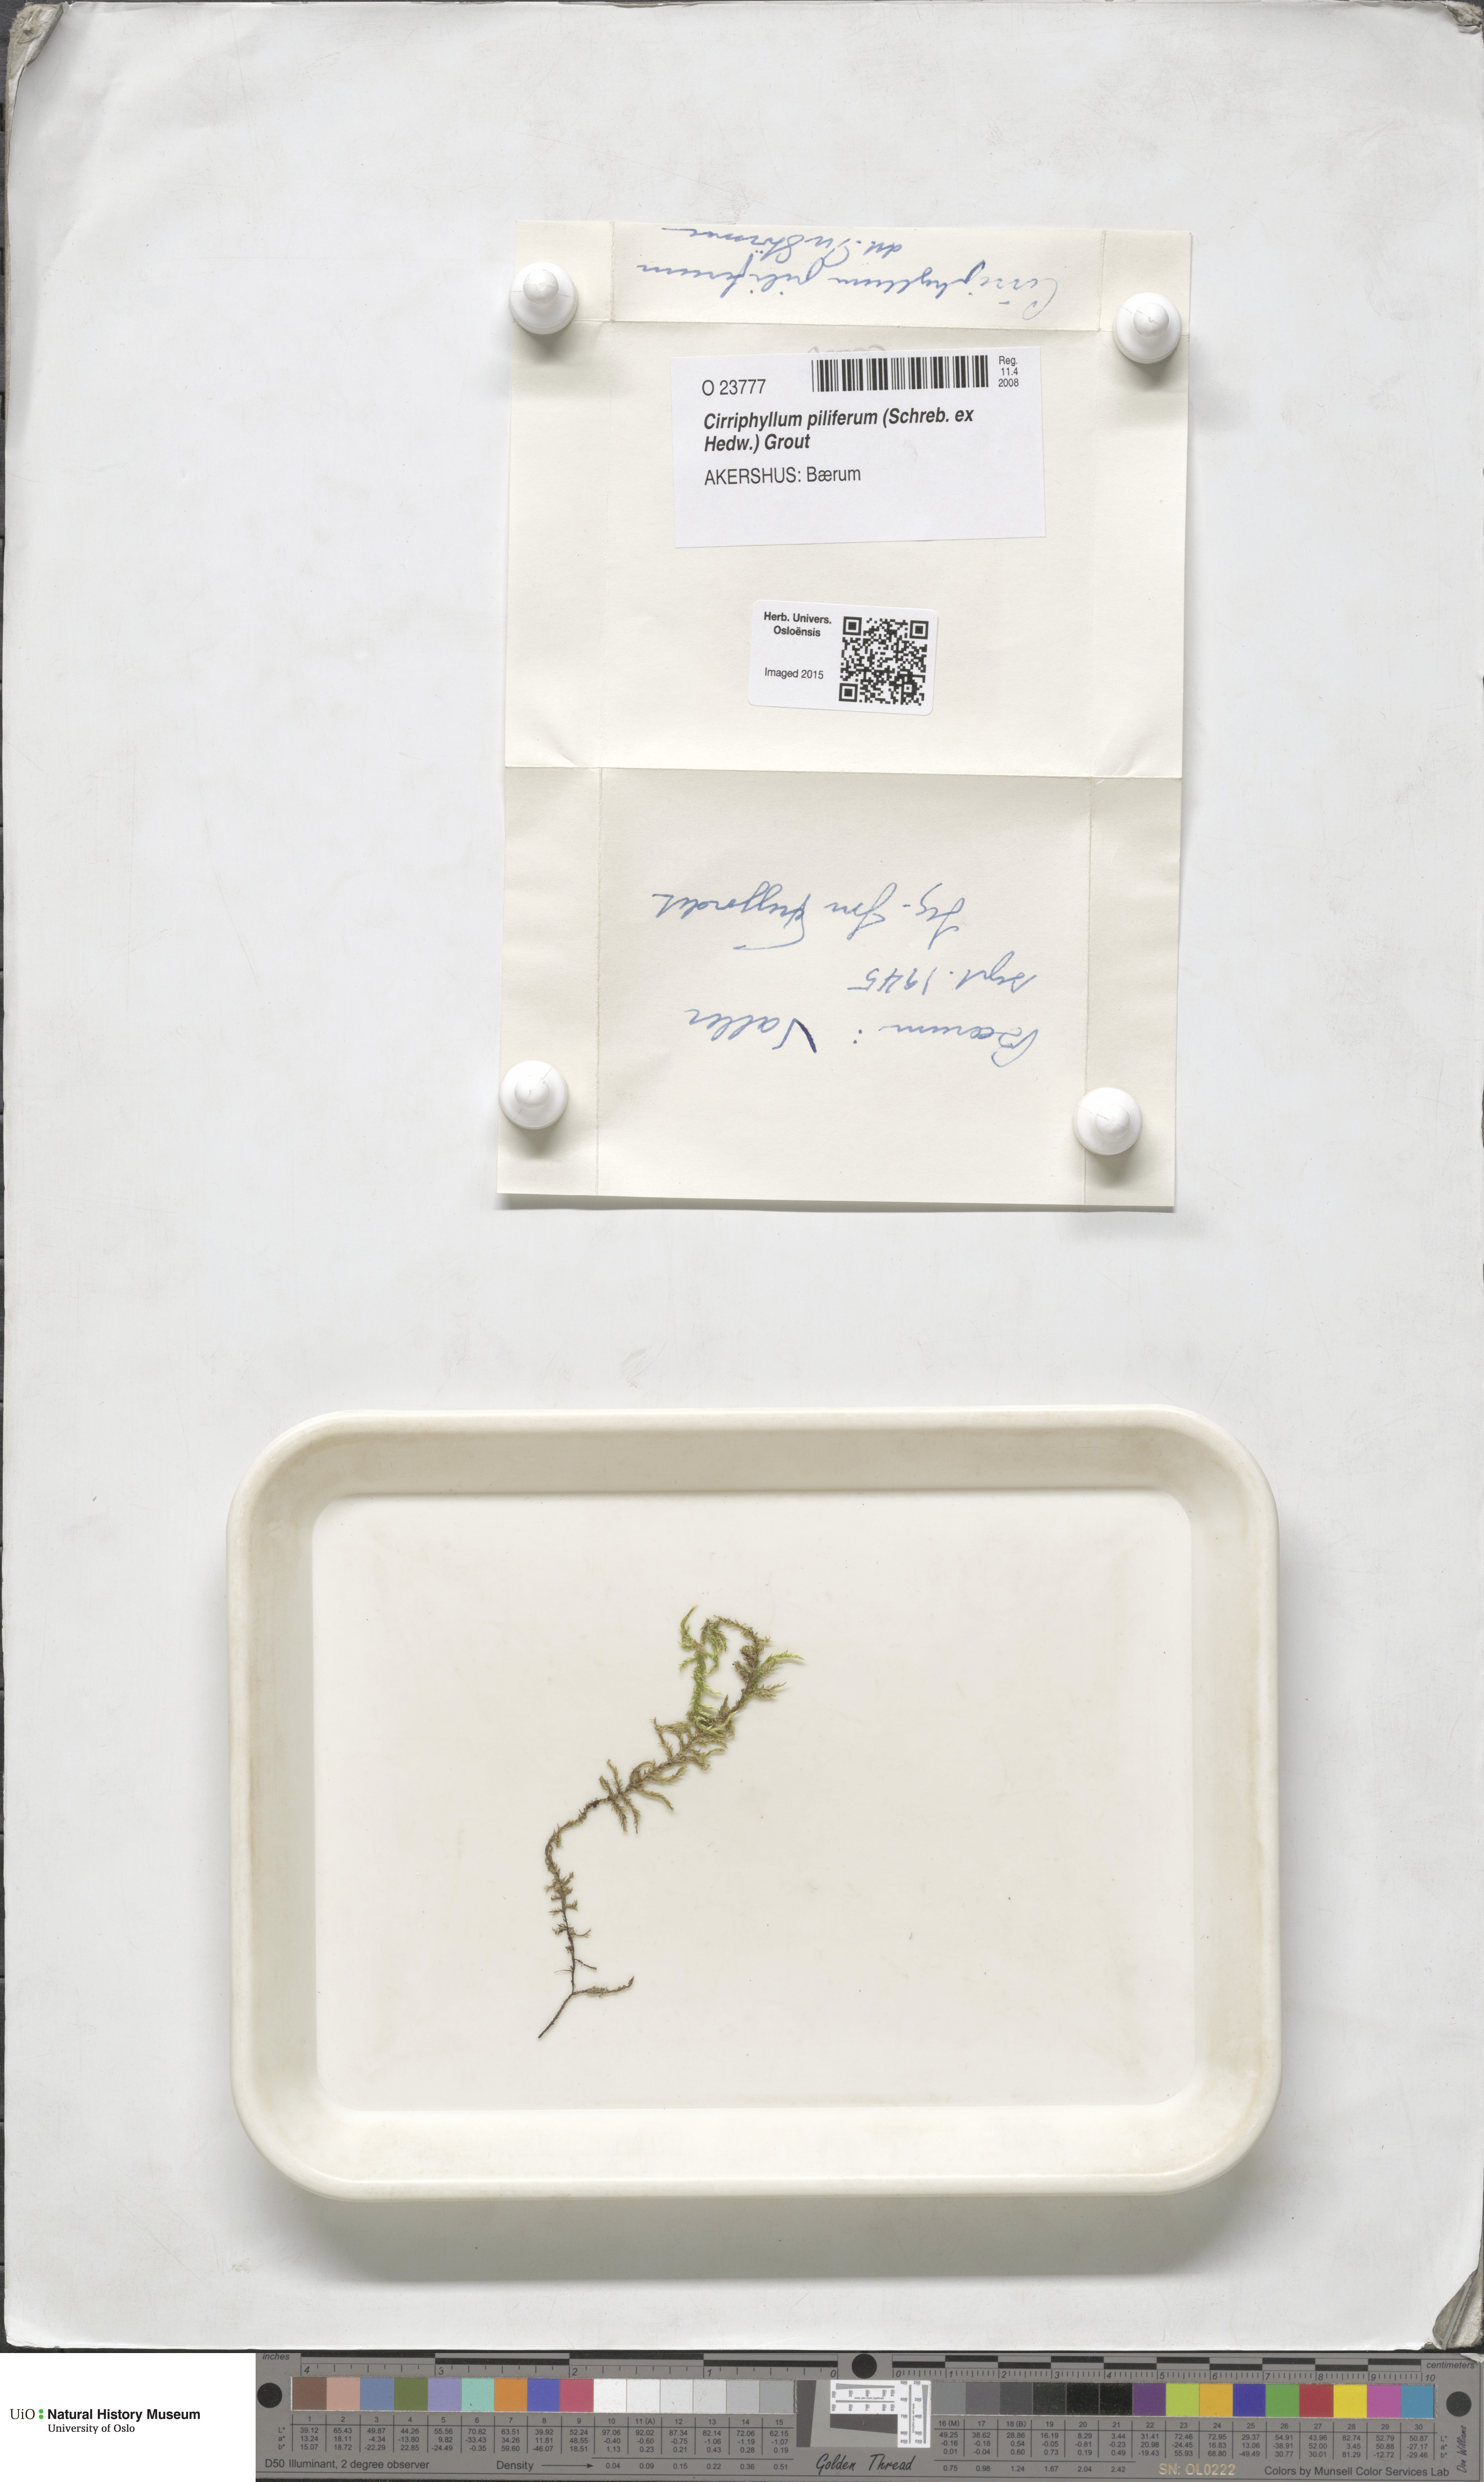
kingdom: Plantae
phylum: Bryophyta
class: Bryopsida
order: Hypnales
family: Brachytheciaceae
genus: Cirriphyllum
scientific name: Cirriphyllum piliferum
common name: Hair-pointed moss
